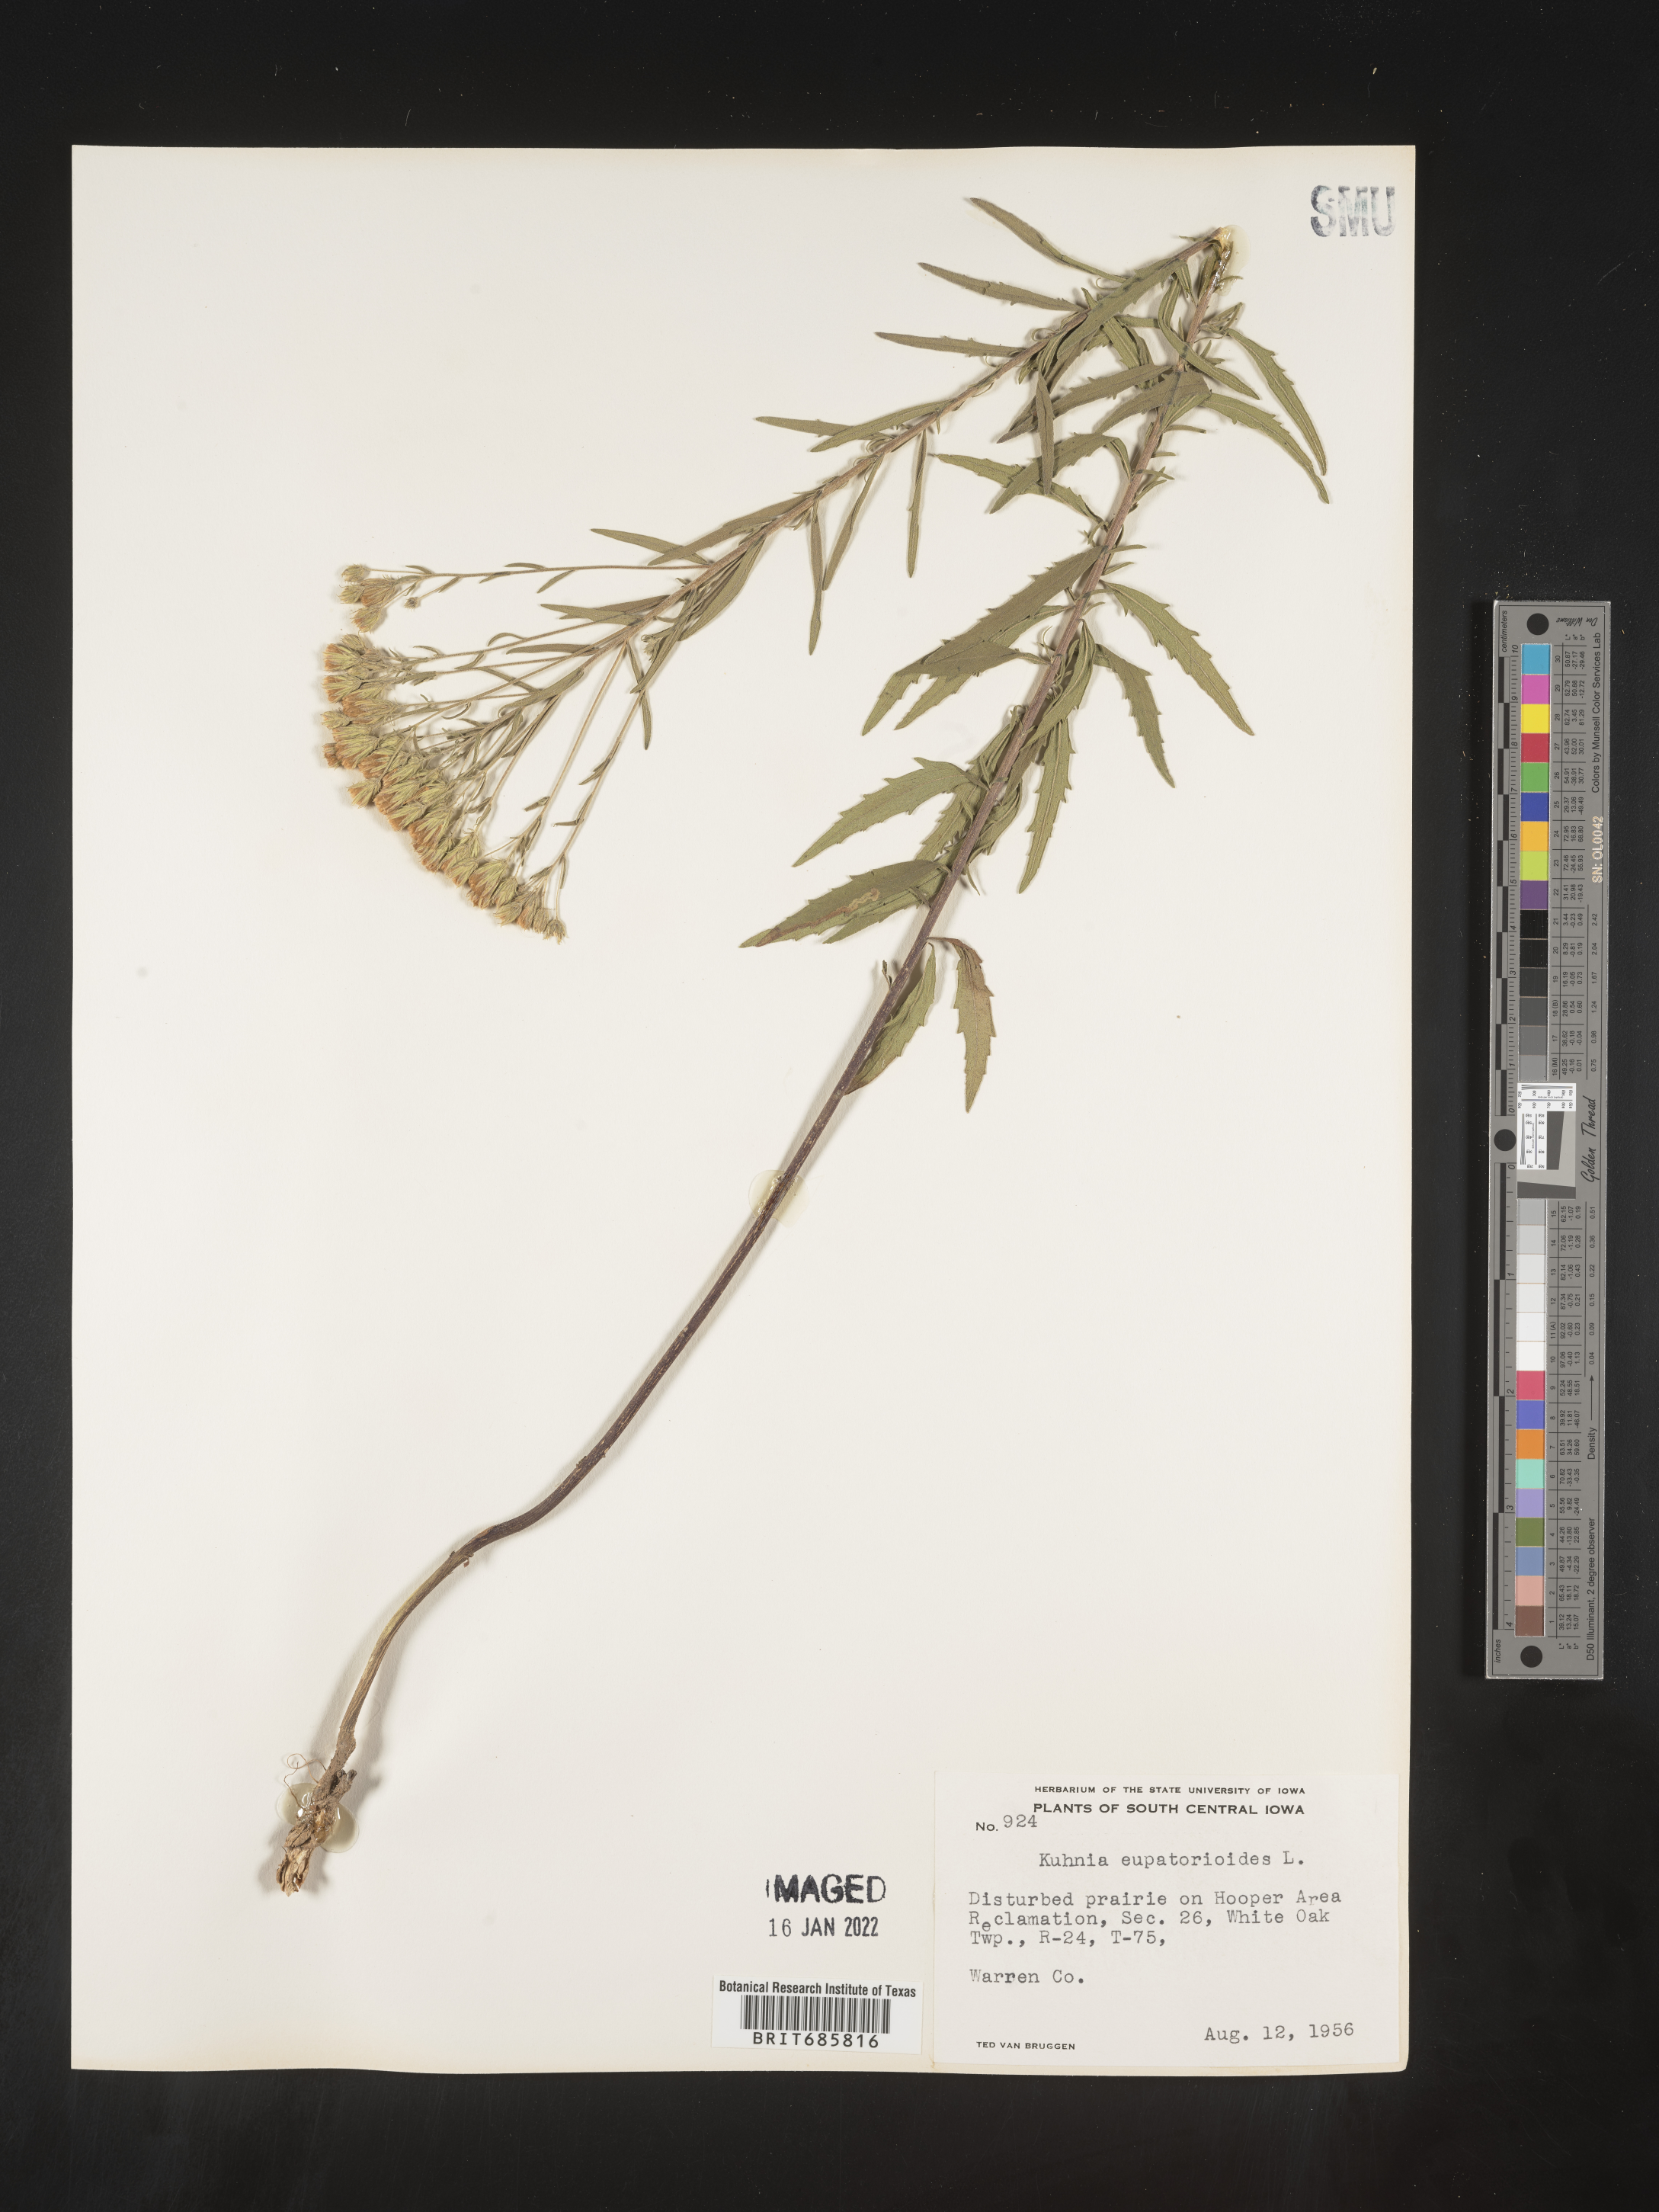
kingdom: Plantae
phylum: Tracheophyta
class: Magnoliopsida
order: Asterales
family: Asteraceae
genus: Brickellia
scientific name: Brickellia eupatorioides
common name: False boneset
